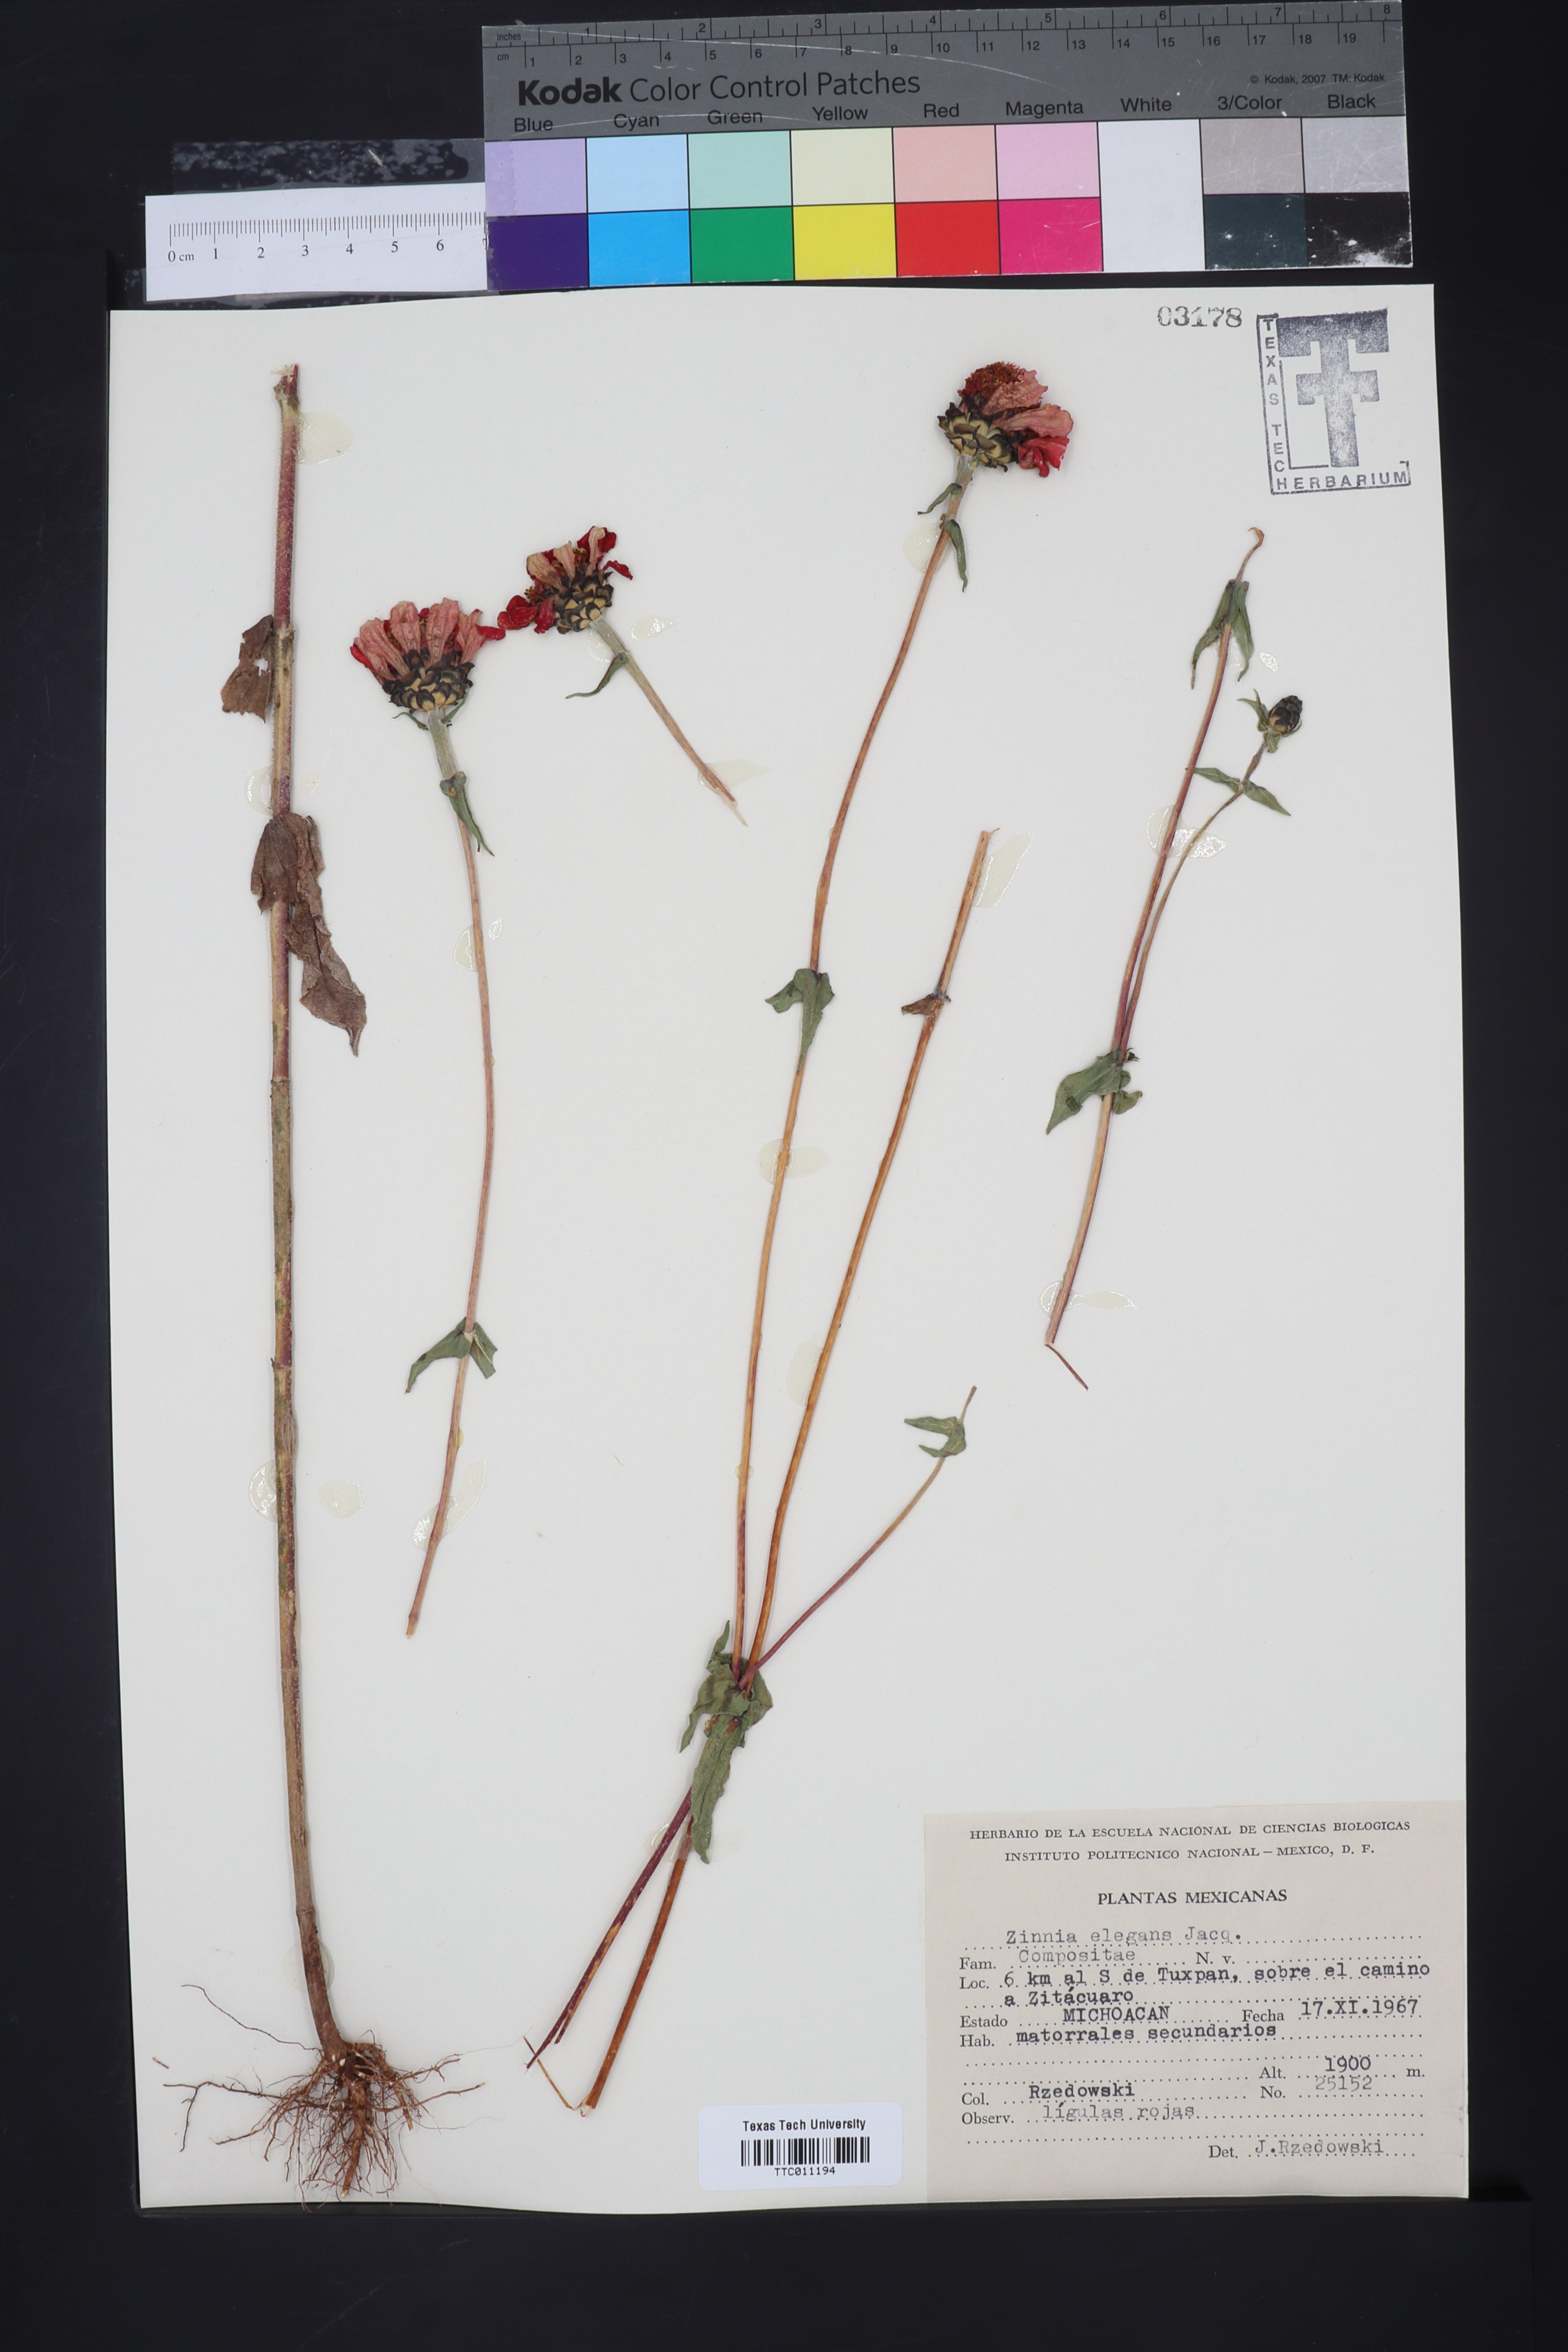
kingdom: Plantae
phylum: Tracheophyta
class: Magnoliopsida
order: Asterales
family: Asteraceae
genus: Zinnia
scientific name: Zinnia elegans
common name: Youth-and-age
